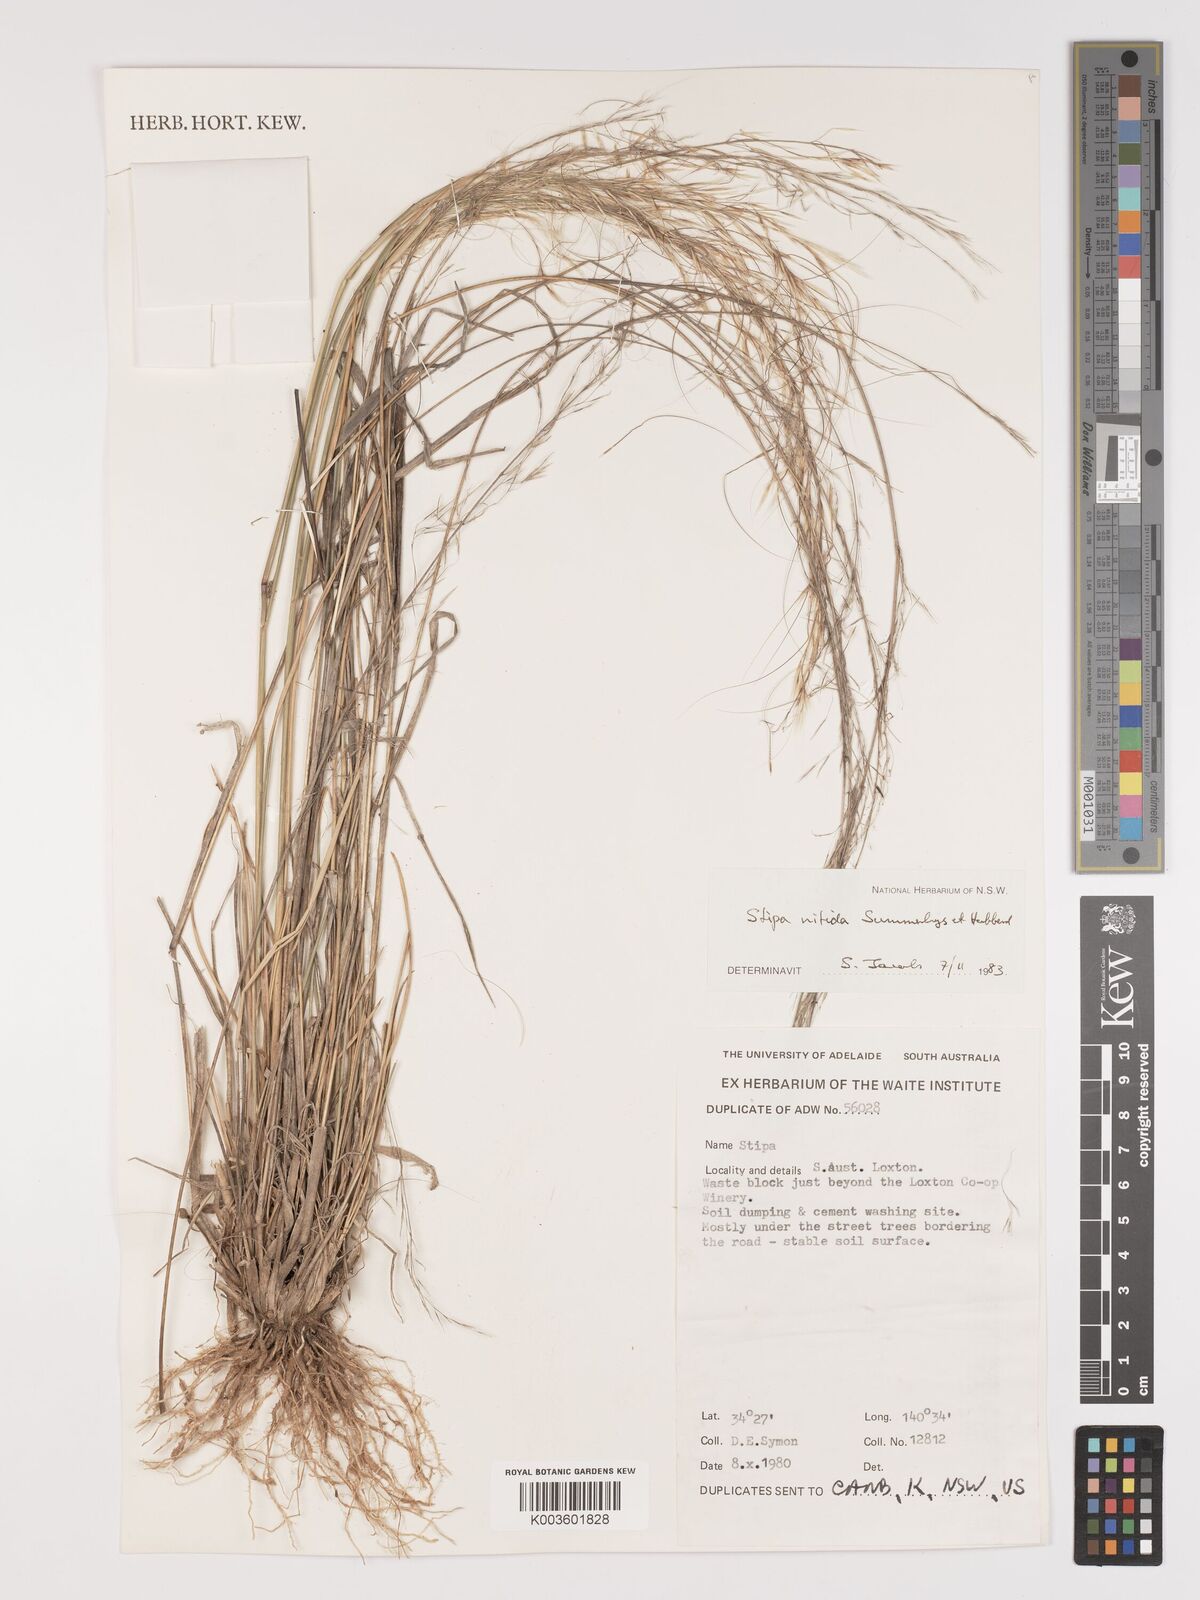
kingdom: Plantae
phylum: Tracheophyta
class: Liliopsida
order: Poales
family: Poaceae
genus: Austrostipa
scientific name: Austrostipa nitida
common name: Balcarra grass
